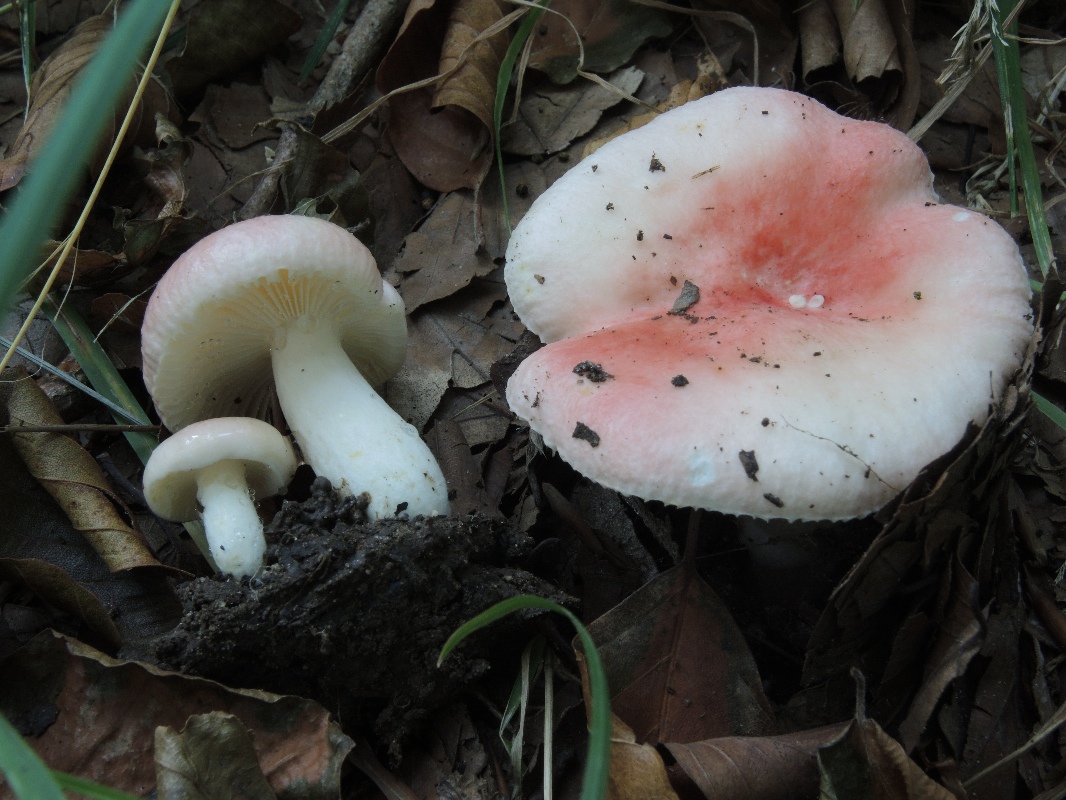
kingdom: Fungi
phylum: Basidiomycota
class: Agaricomycetes
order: Russulales
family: Russulaceae
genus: Russula
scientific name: Russula luteotacta
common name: gulplettet gift-skørhat
